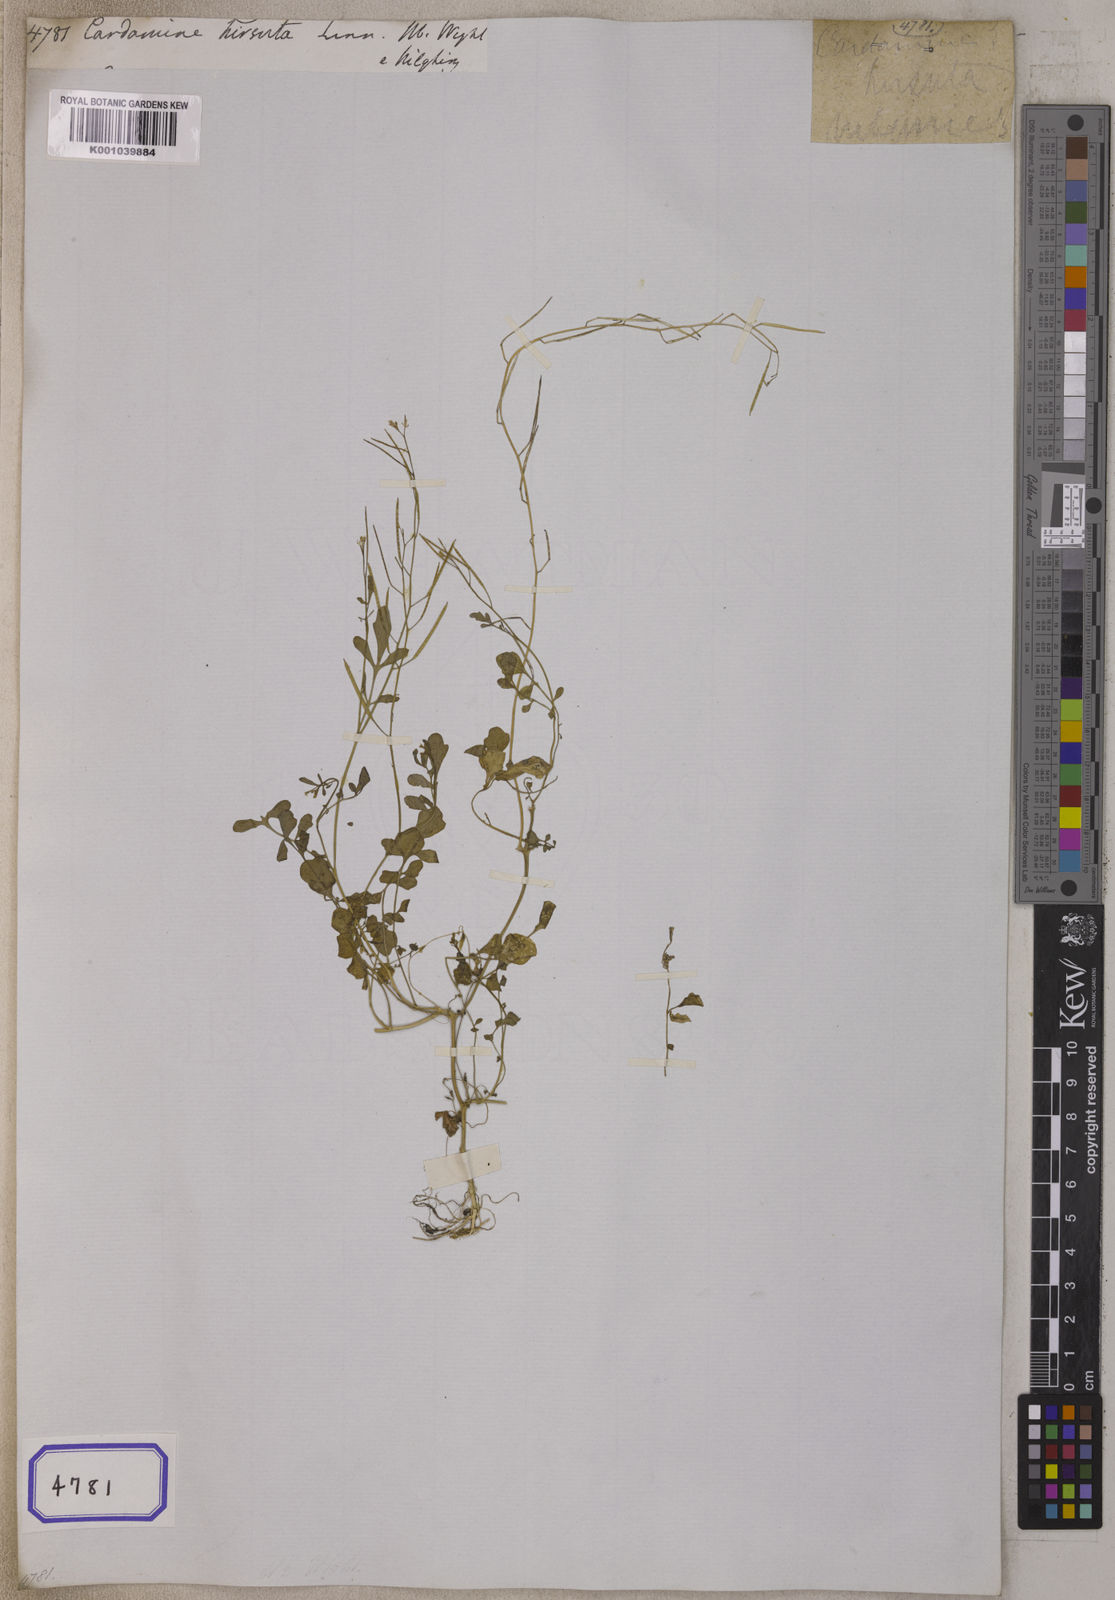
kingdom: Plantae
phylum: Tracheophyta
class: Magnoliopsida
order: Brassicales
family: Brassicaceae
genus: Cardamine
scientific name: Cardamine hirsuta
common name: Hairy bittercress
